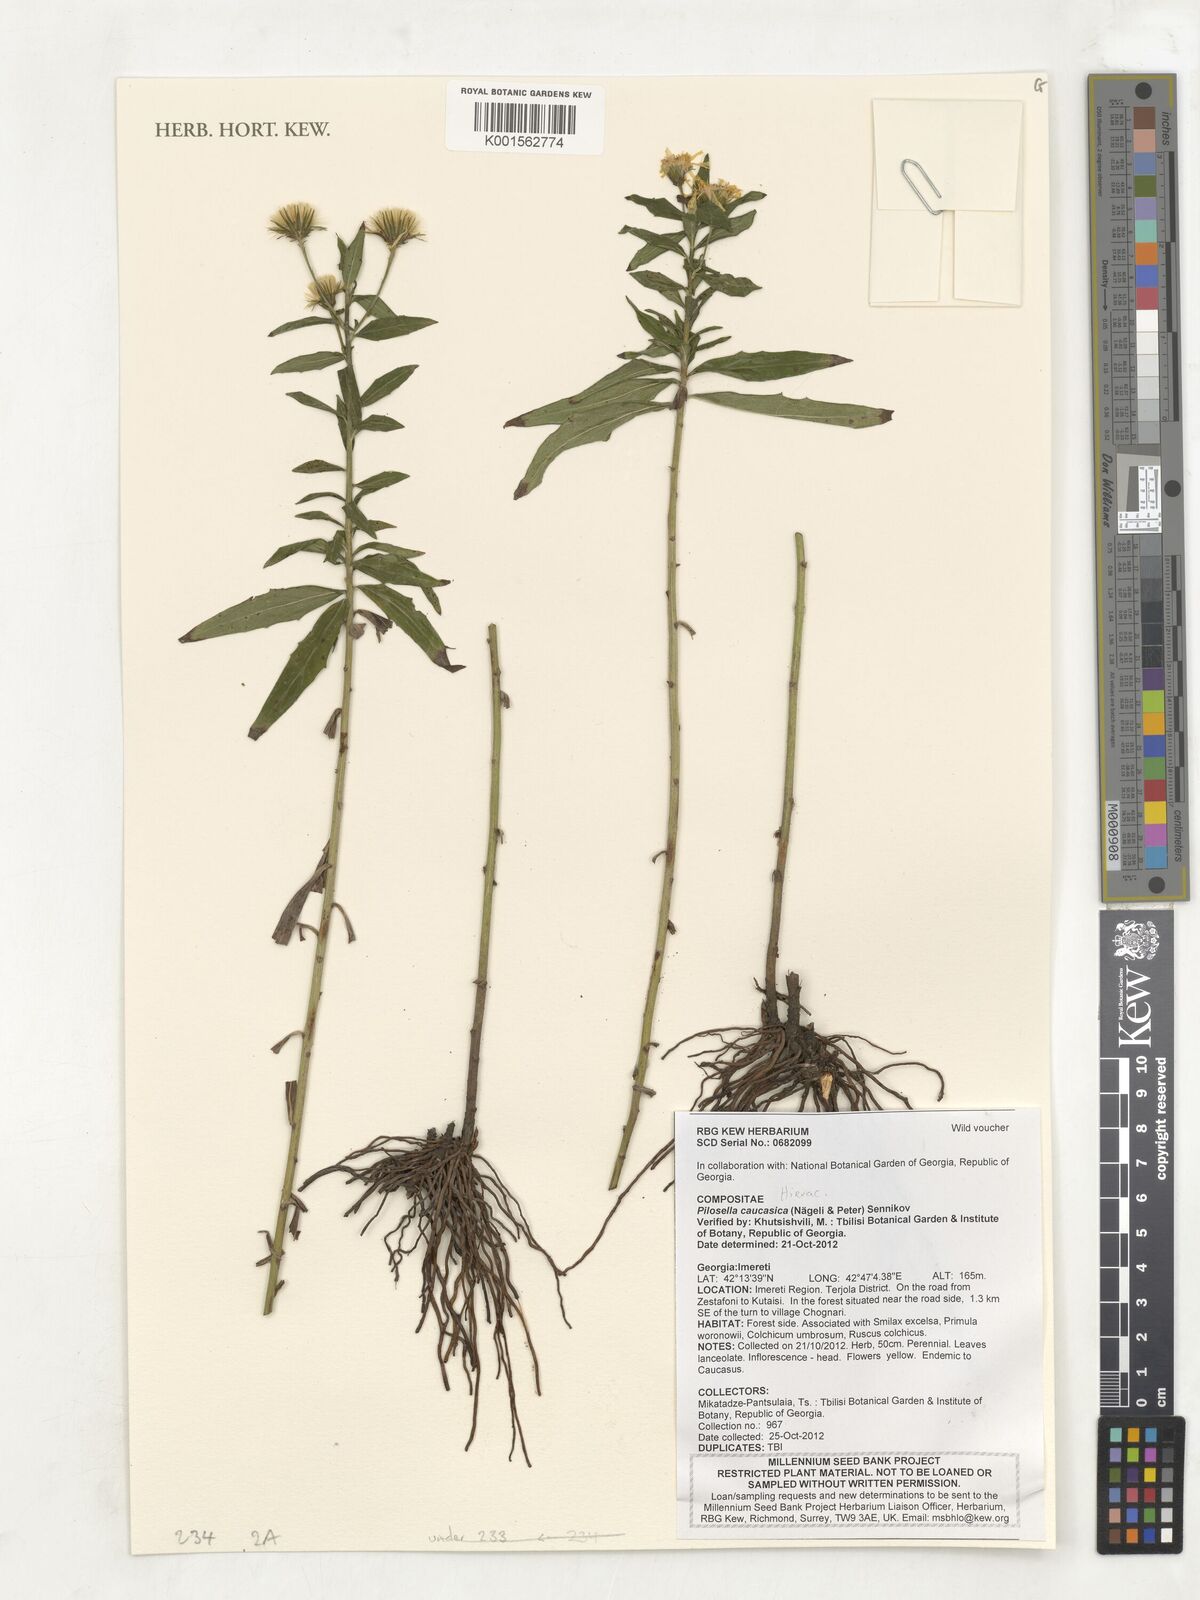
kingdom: Plantae
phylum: Tracheophyta
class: Magnoliopsida
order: Asterales
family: Asteraceae
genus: Pilosella
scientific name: Pilosella caucasica
